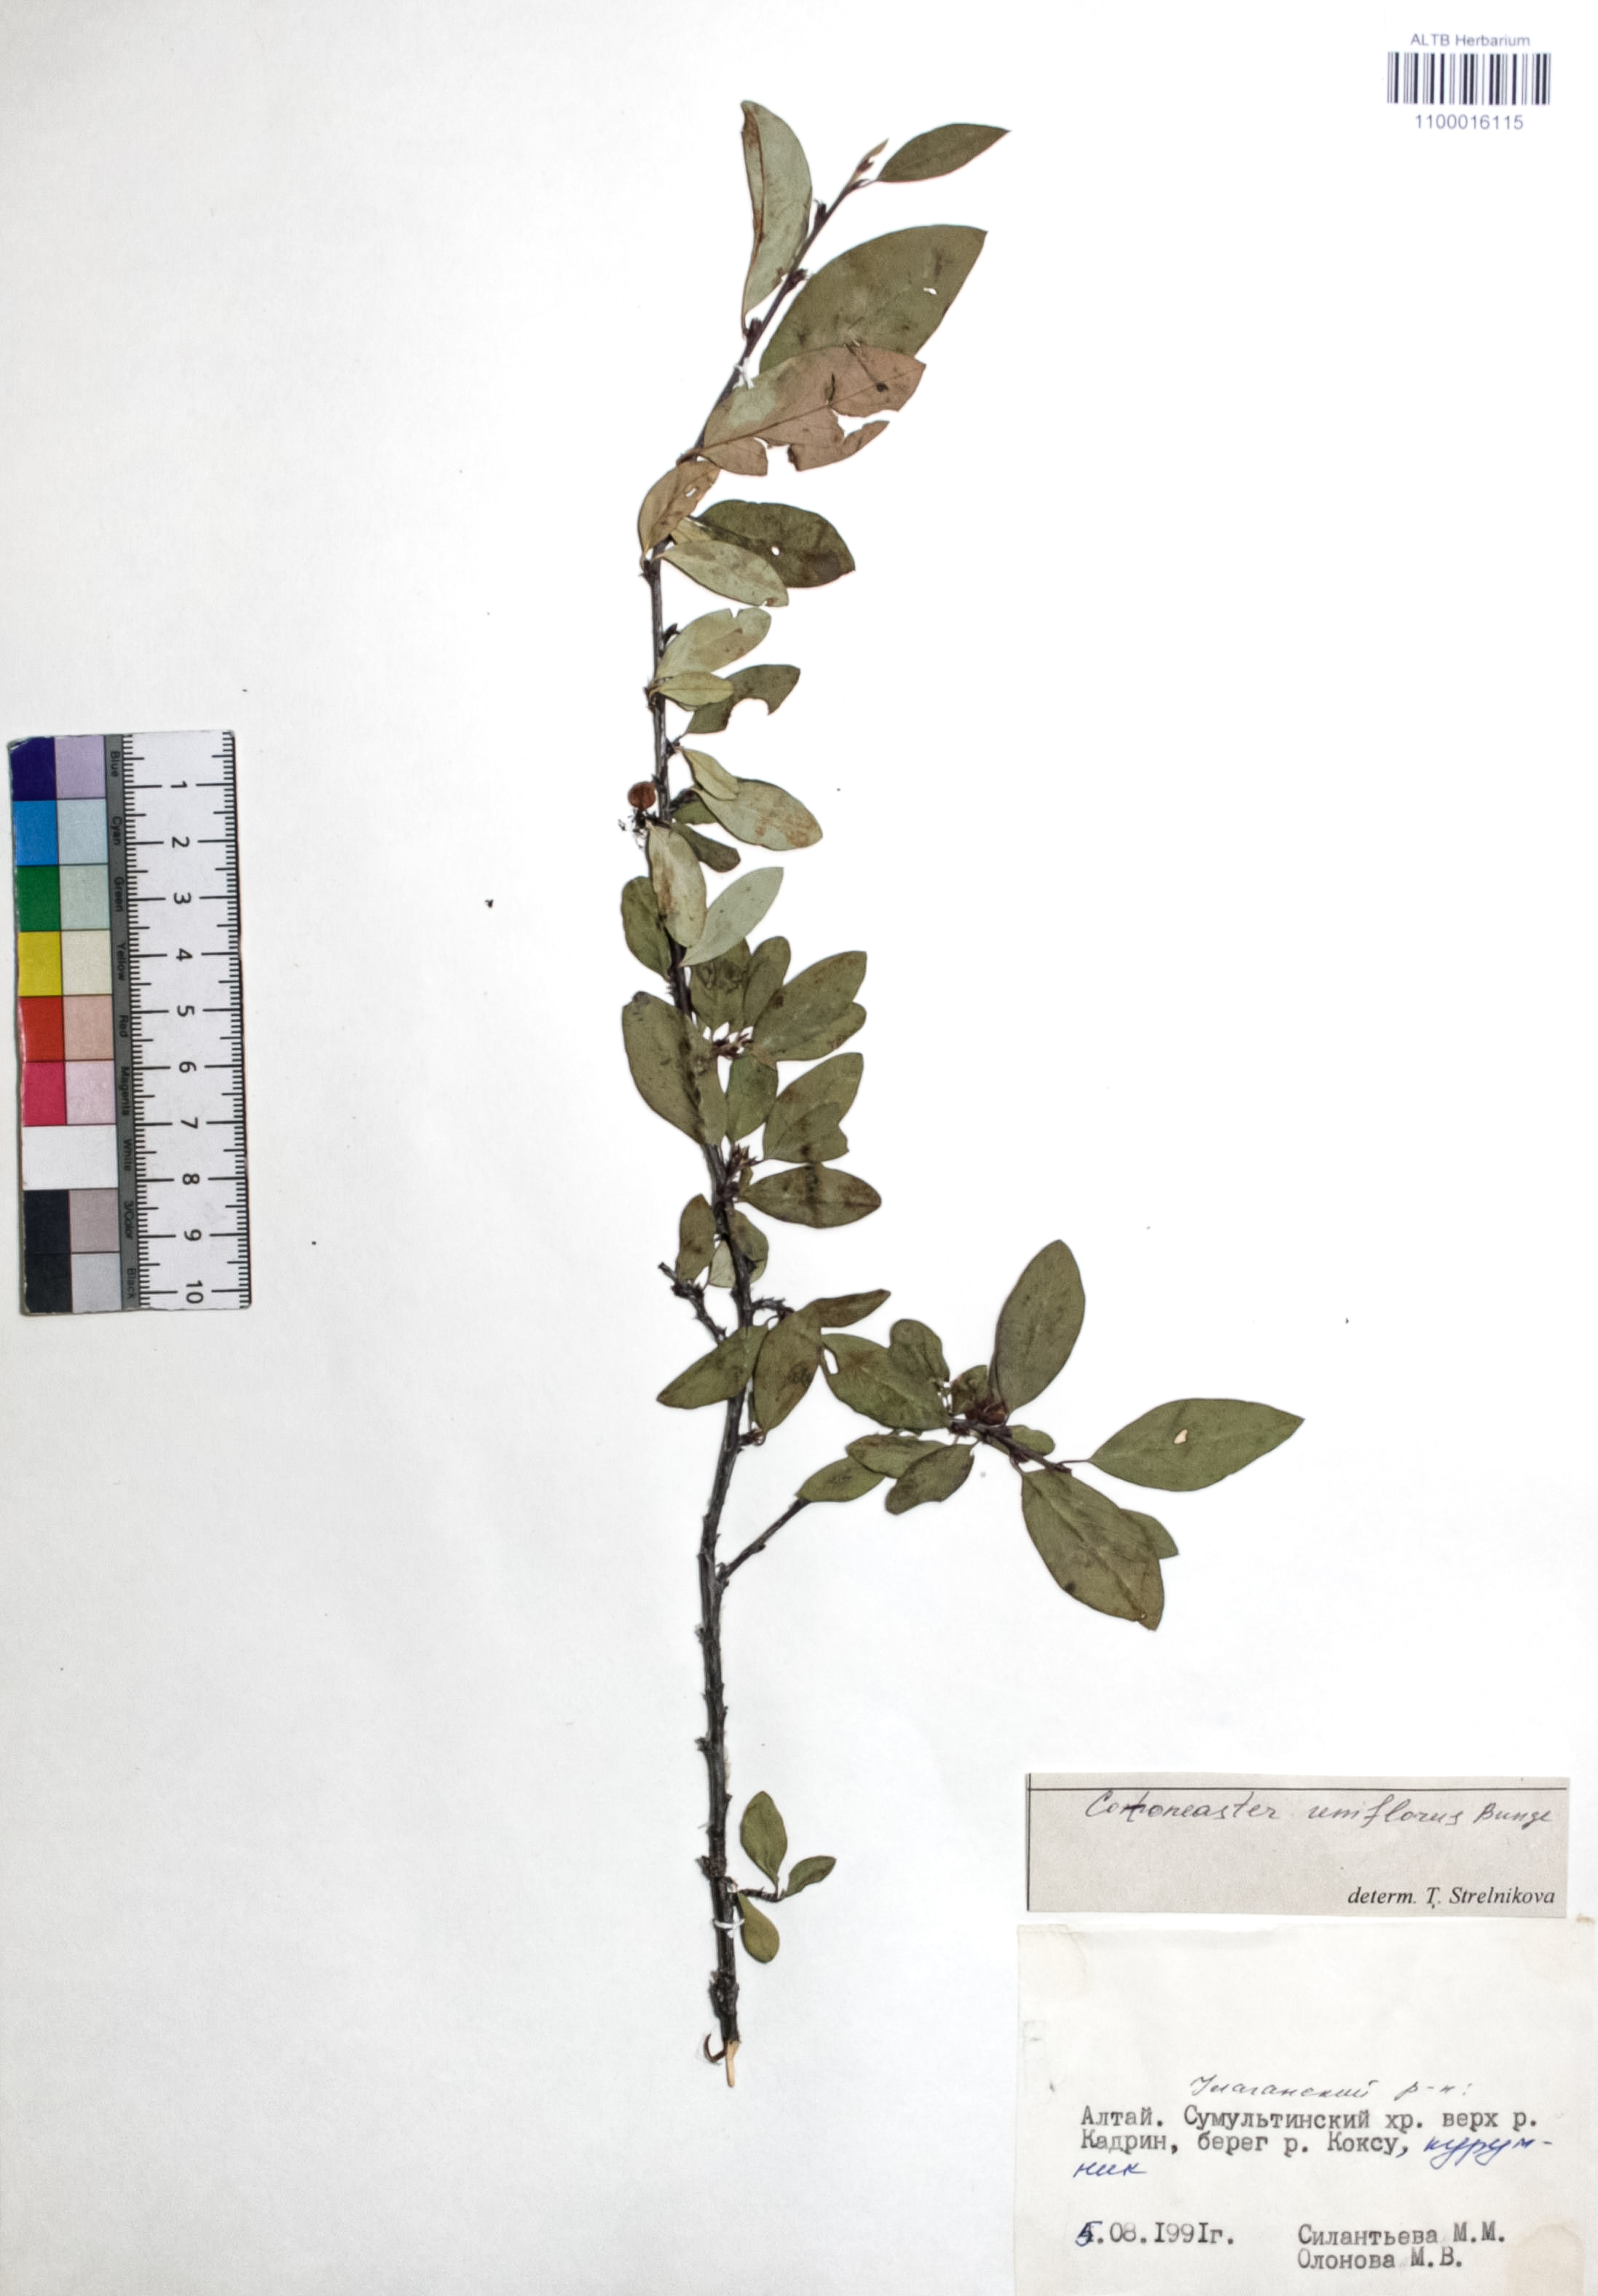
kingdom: Plantae
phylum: Tracheophyta
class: Magnoliopsida
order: Rosales
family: Rosaceae
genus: Cotoneaster
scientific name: Cotoneaster uniflorus
